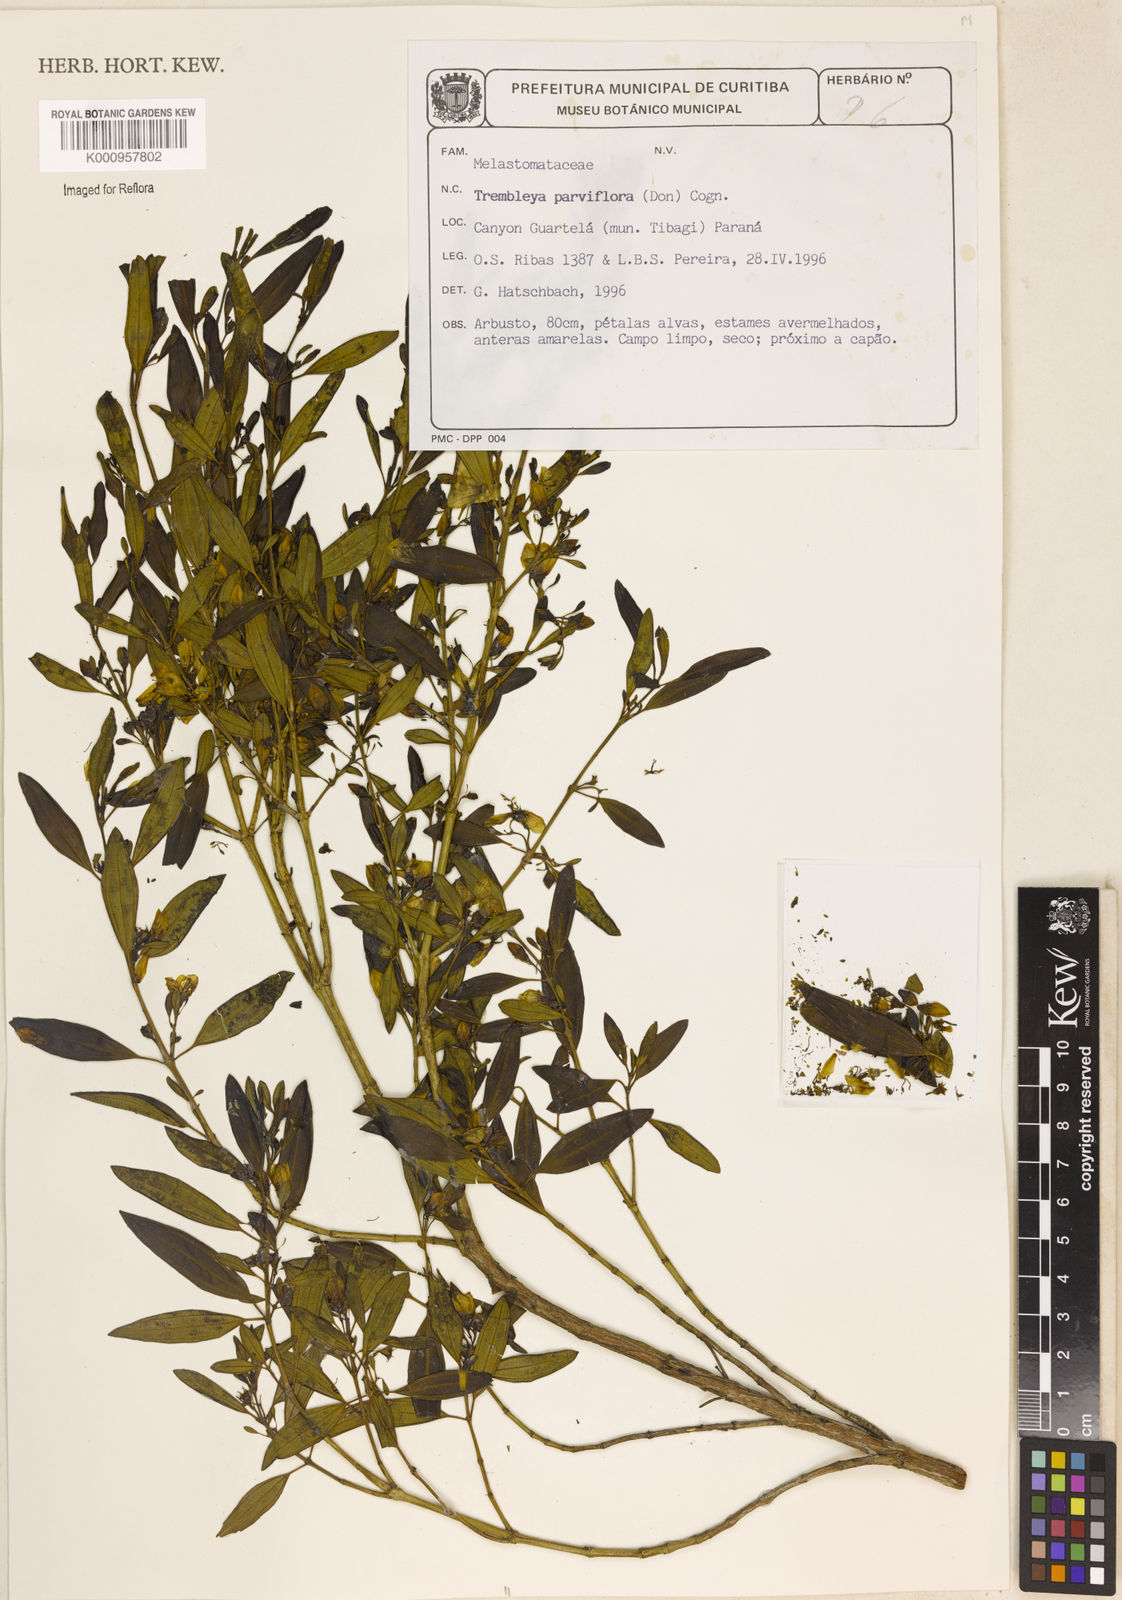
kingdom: Plantae
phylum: Tracheophyta
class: Magnoliopsida
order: Myrtales
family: Melastomataceae
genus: Microlicia
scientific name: Microlicia parviflora
